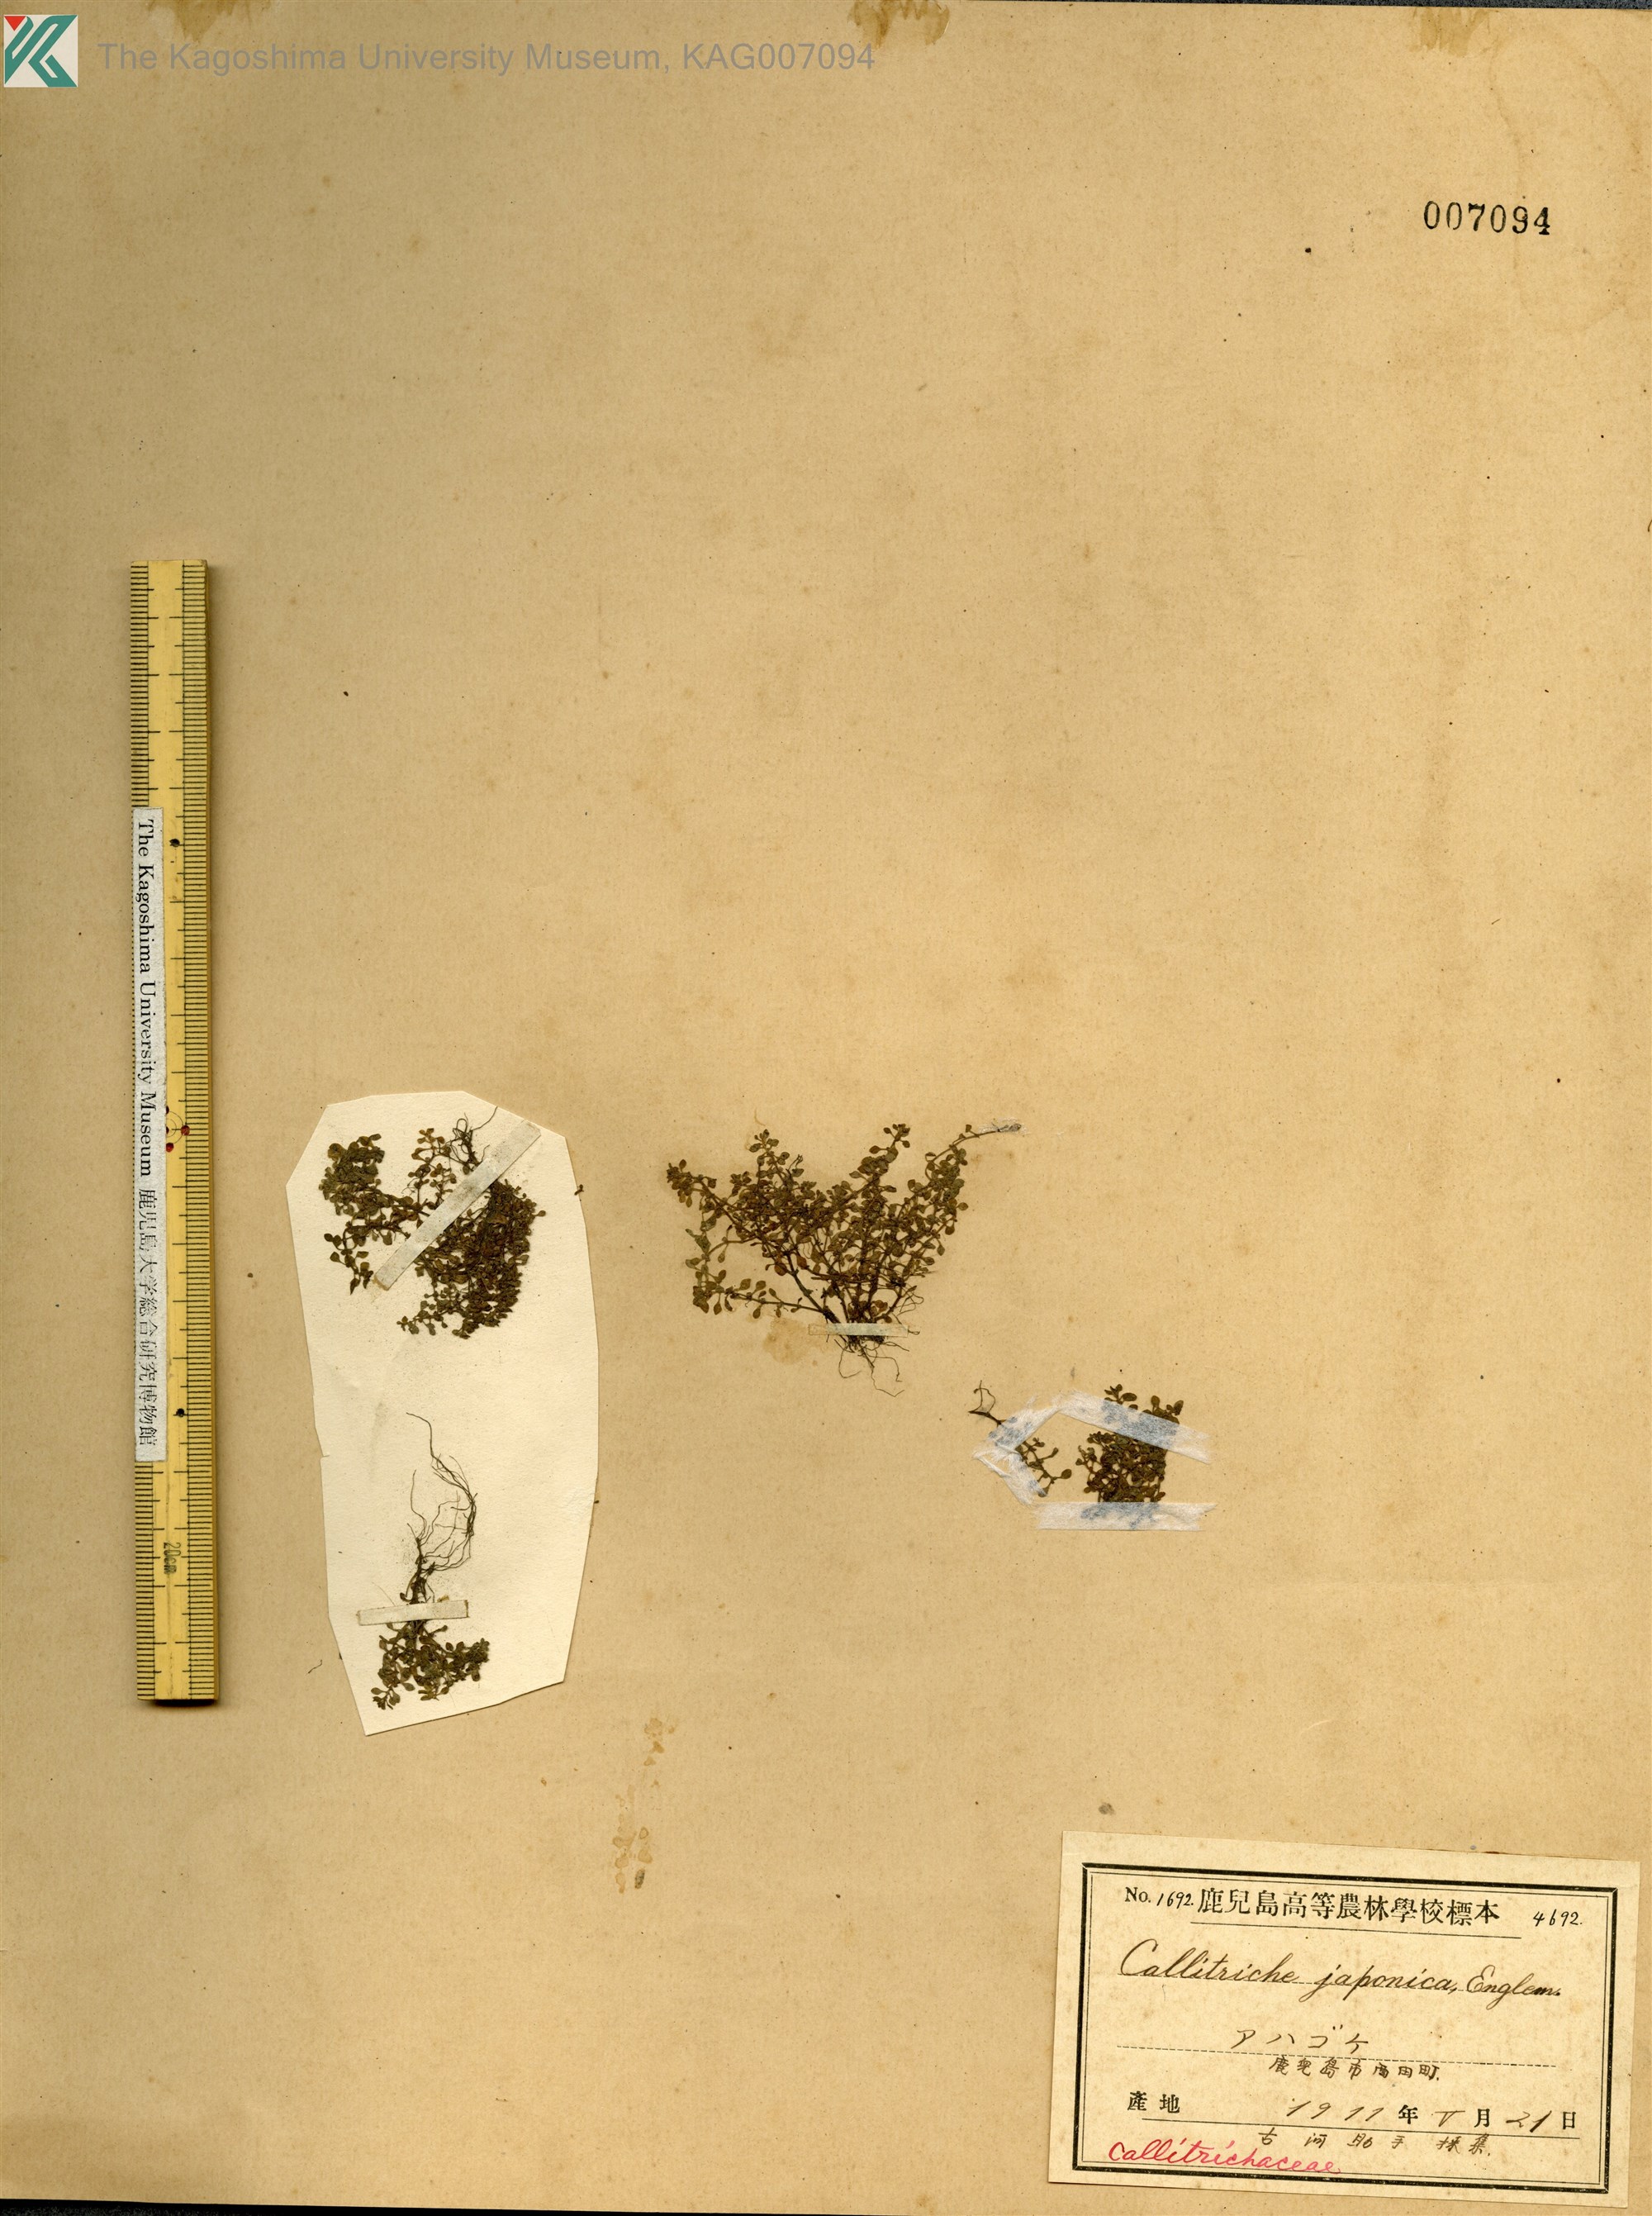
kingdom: Plantae
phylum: Tracheophyta
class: Magnoliopsida
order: Lamiales
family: Plantaginaceae
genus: Callitriche
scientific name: Callitriche japonica
